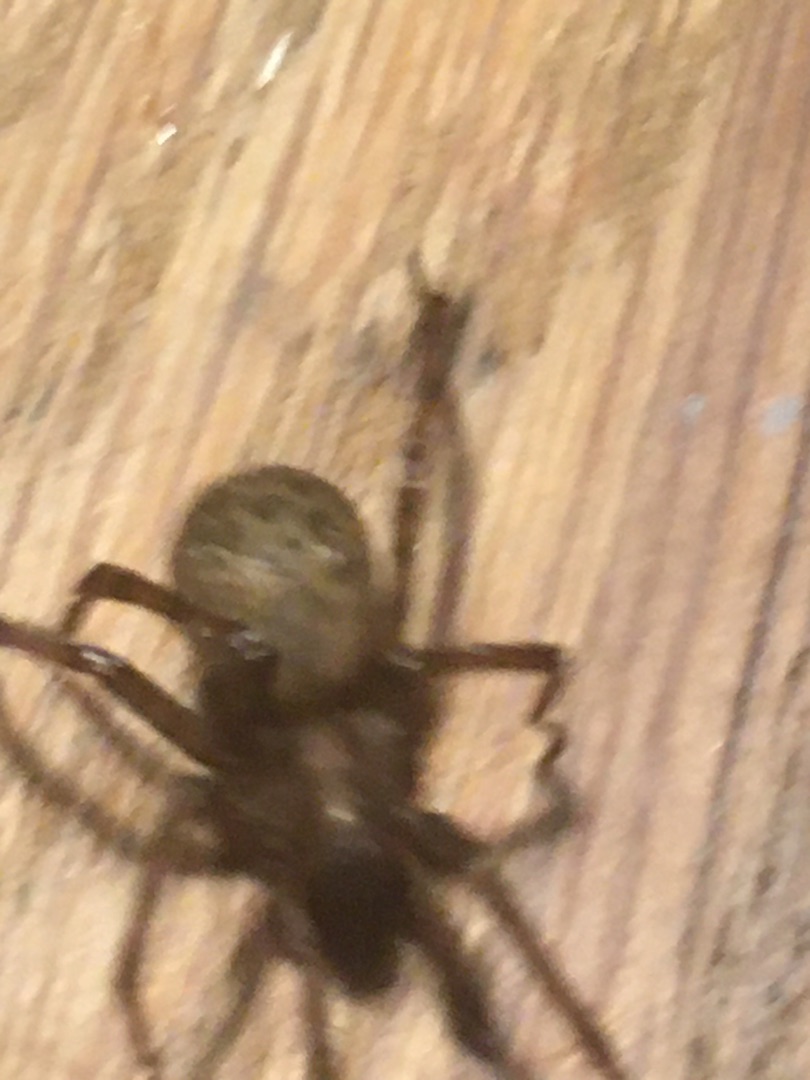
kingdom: Animalia
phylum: Arthropoda
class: Arachnida
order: Araneae
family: Agelenidae
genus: Tegenaria
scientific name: Tegenaria domestica
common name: Lille husedderkop
